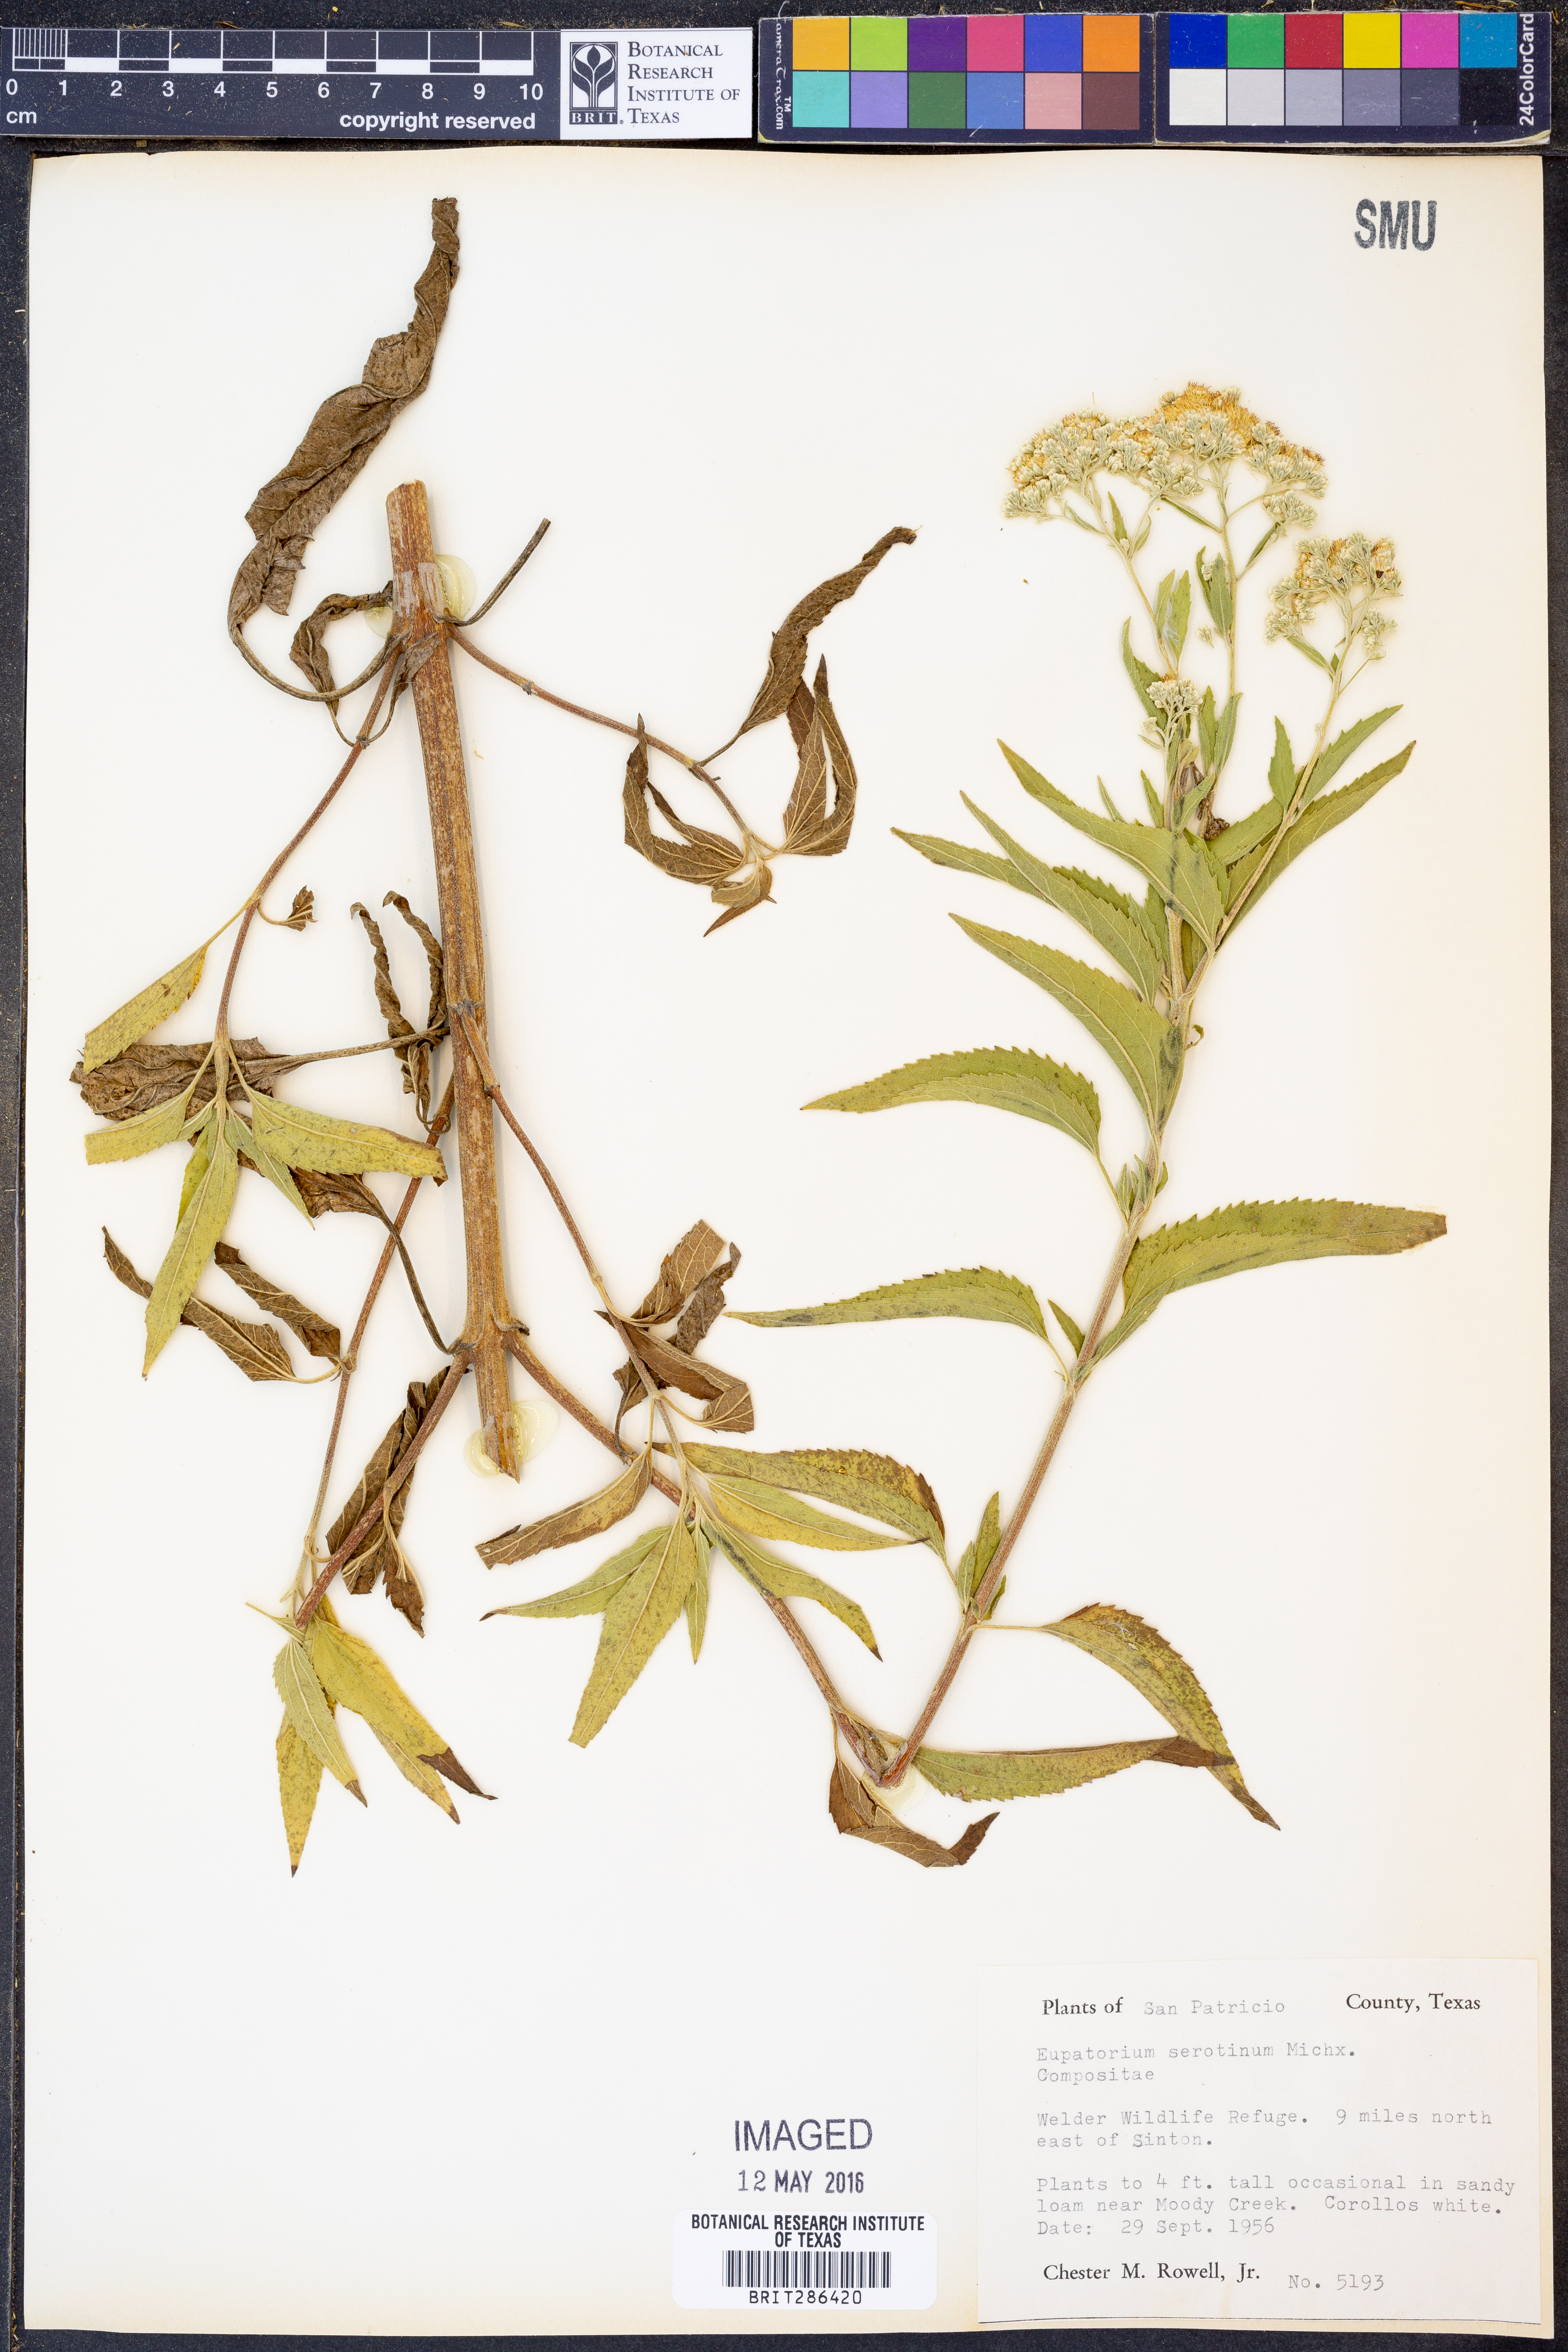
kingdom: Plantae
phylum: Tracheophyta
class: Magnoliopsida
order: Asterales
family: Asteraceae
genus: Eupatorium
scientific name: Eupatorium serotinum
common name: Late boneset
